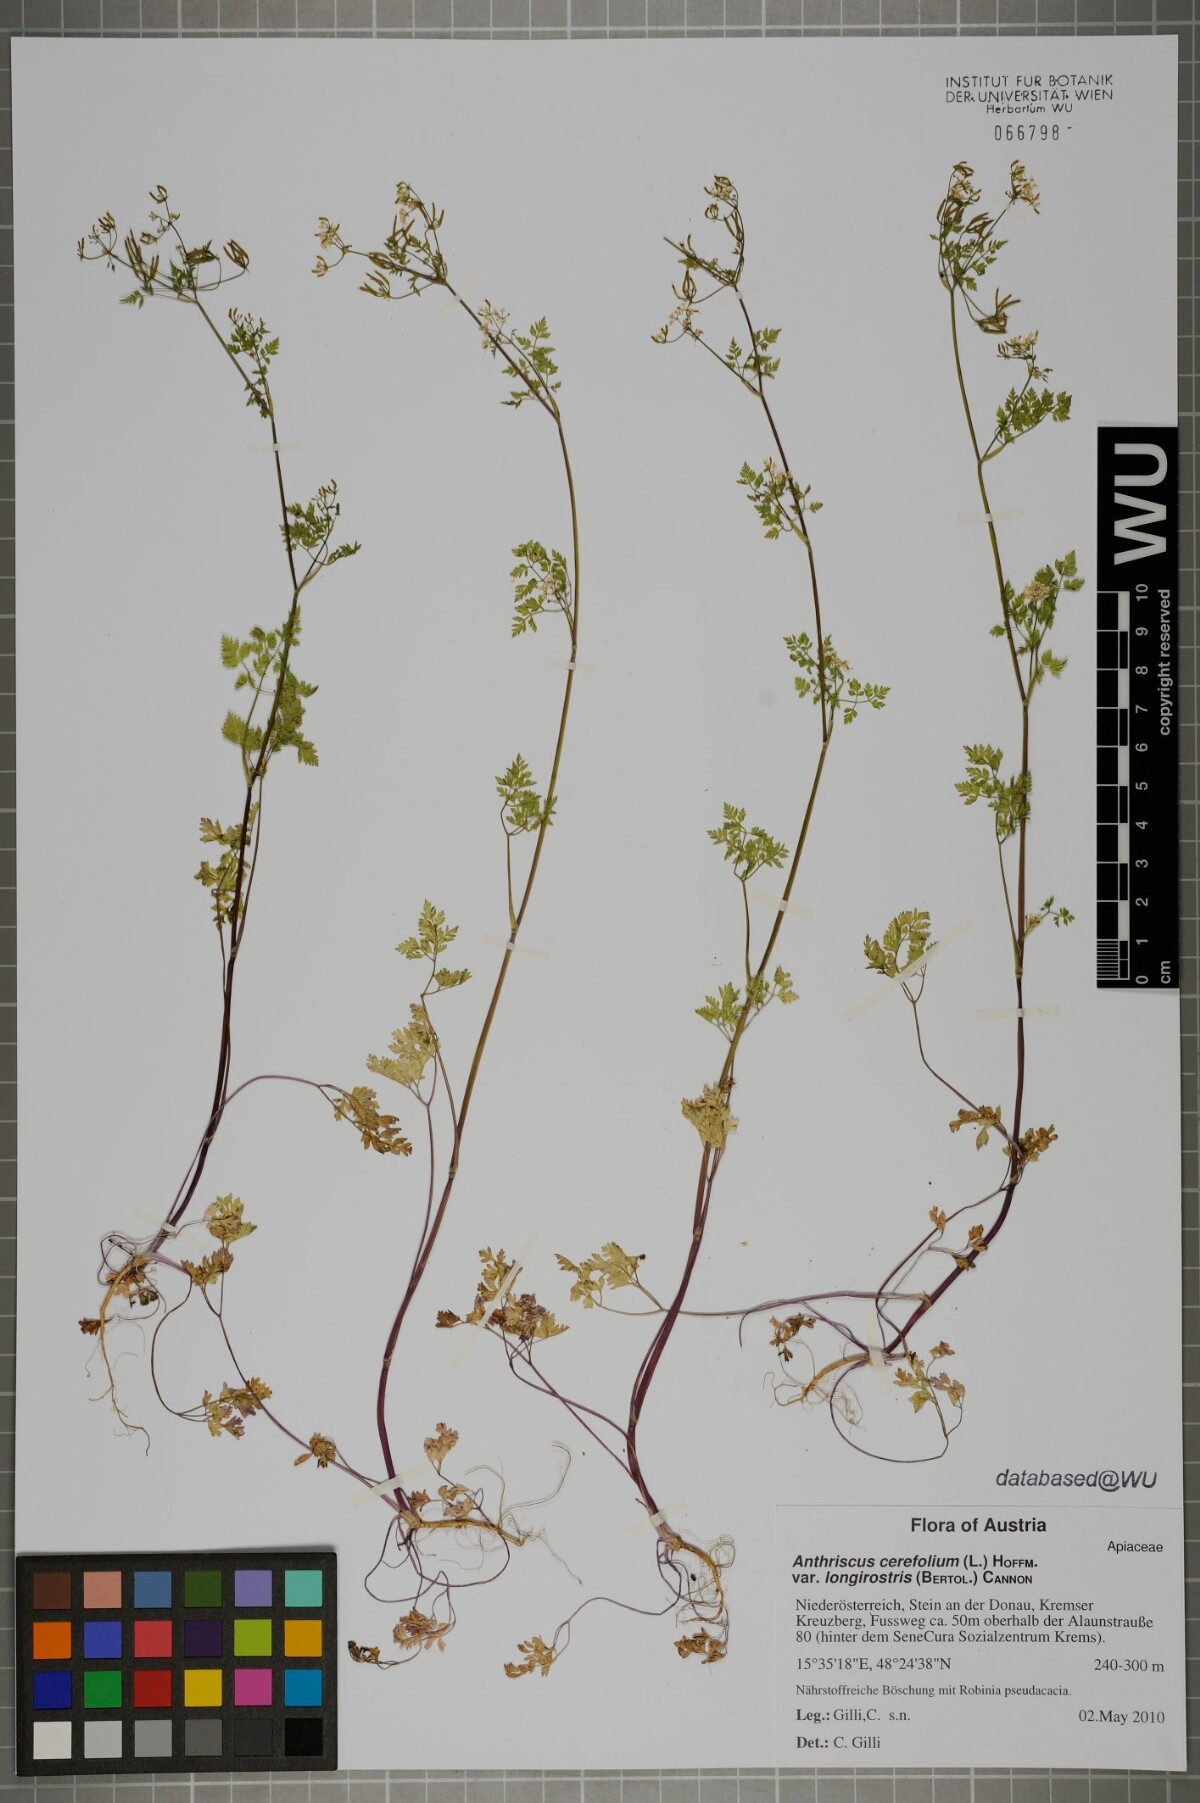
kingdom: Plantae
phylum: Tracheophyta
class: Magnoliopsida
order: Apiales
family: Apiaceae
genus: Anthriscus
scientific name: Anthriscus cerefolium
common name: Garden chervil
